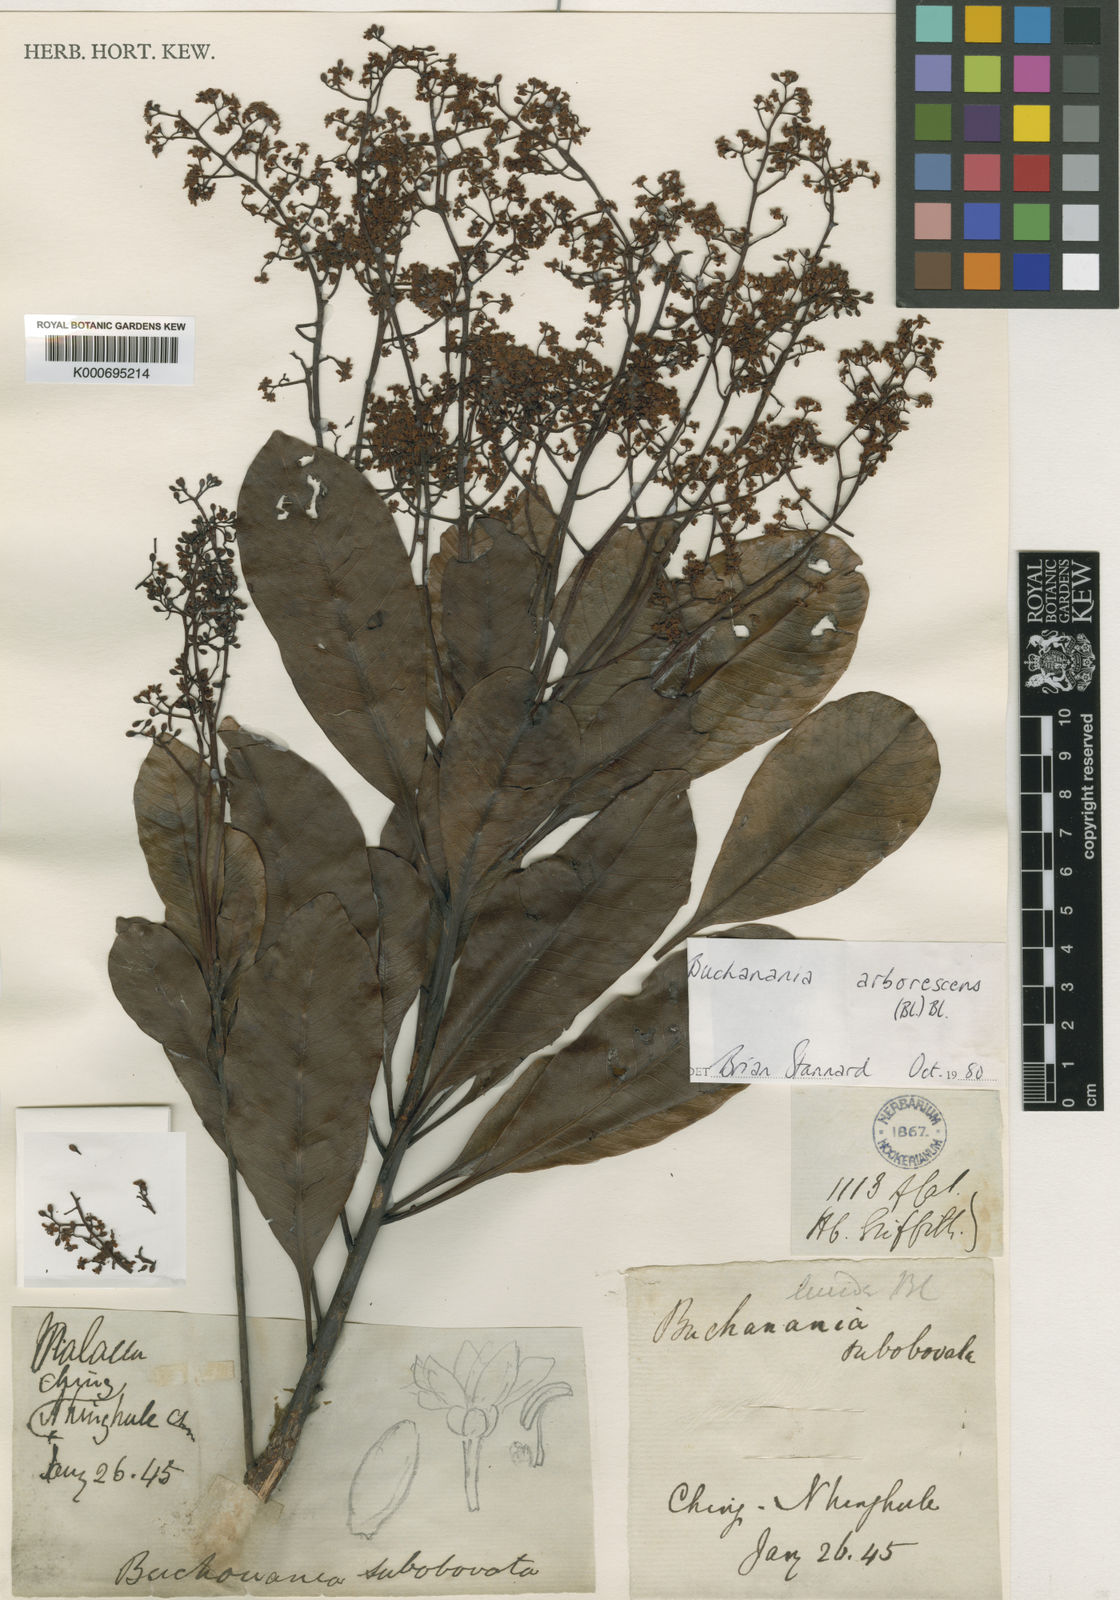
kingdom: Plantae
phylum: Tracheophyta
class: Magnoliopsida
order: Sapindales
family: Anacardiaceae
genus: Buchanania
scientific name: Buchanania arborescens
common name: Sparrow’s mango
